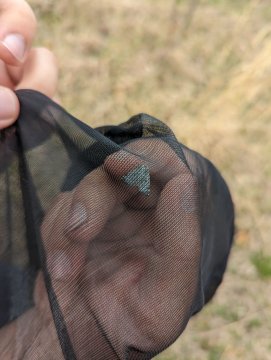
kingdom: Animalia
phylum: Arthropoda
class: Insecta
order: Lepidoptera
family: Pieridae
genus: Pontia
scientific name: Pontia protodice
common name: Checkered White
